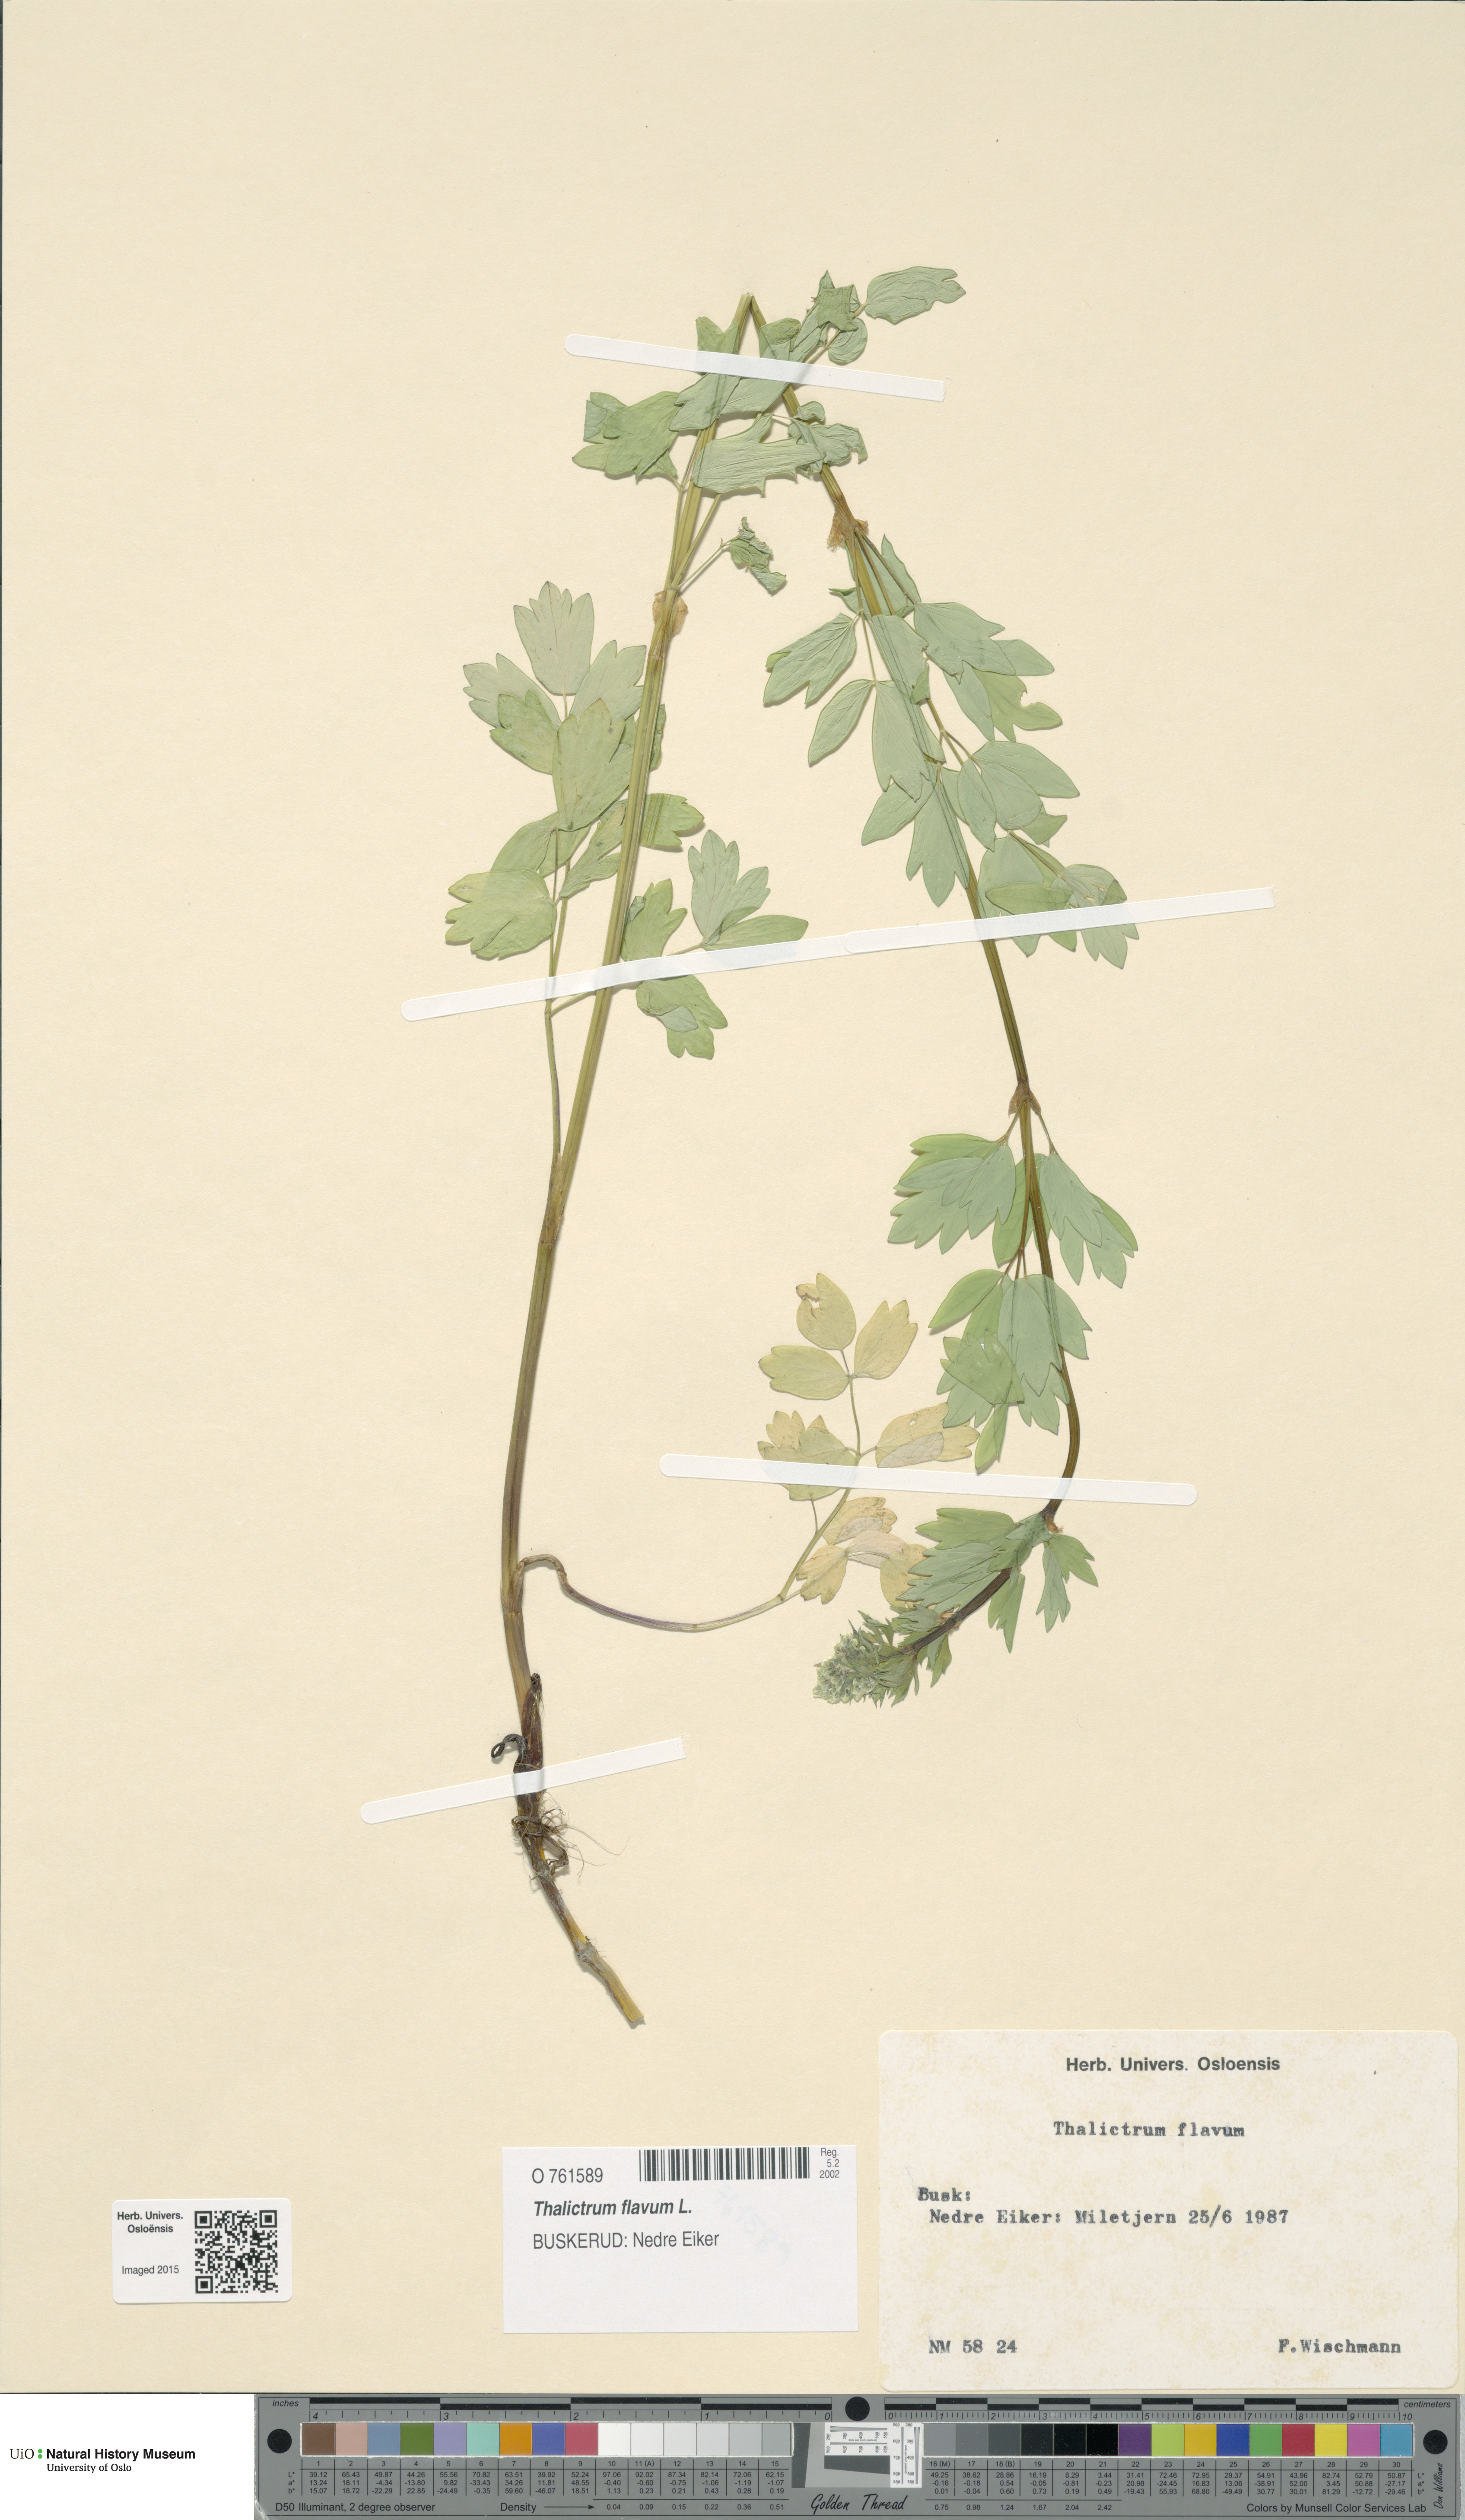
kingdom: Plantae
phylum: Tracheophyta
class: Magnoliopsida
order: Ranunculales
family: Ranunculaceae
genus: Thalictrum
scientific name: Thalictrum flavum
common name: Common meadow-rue
